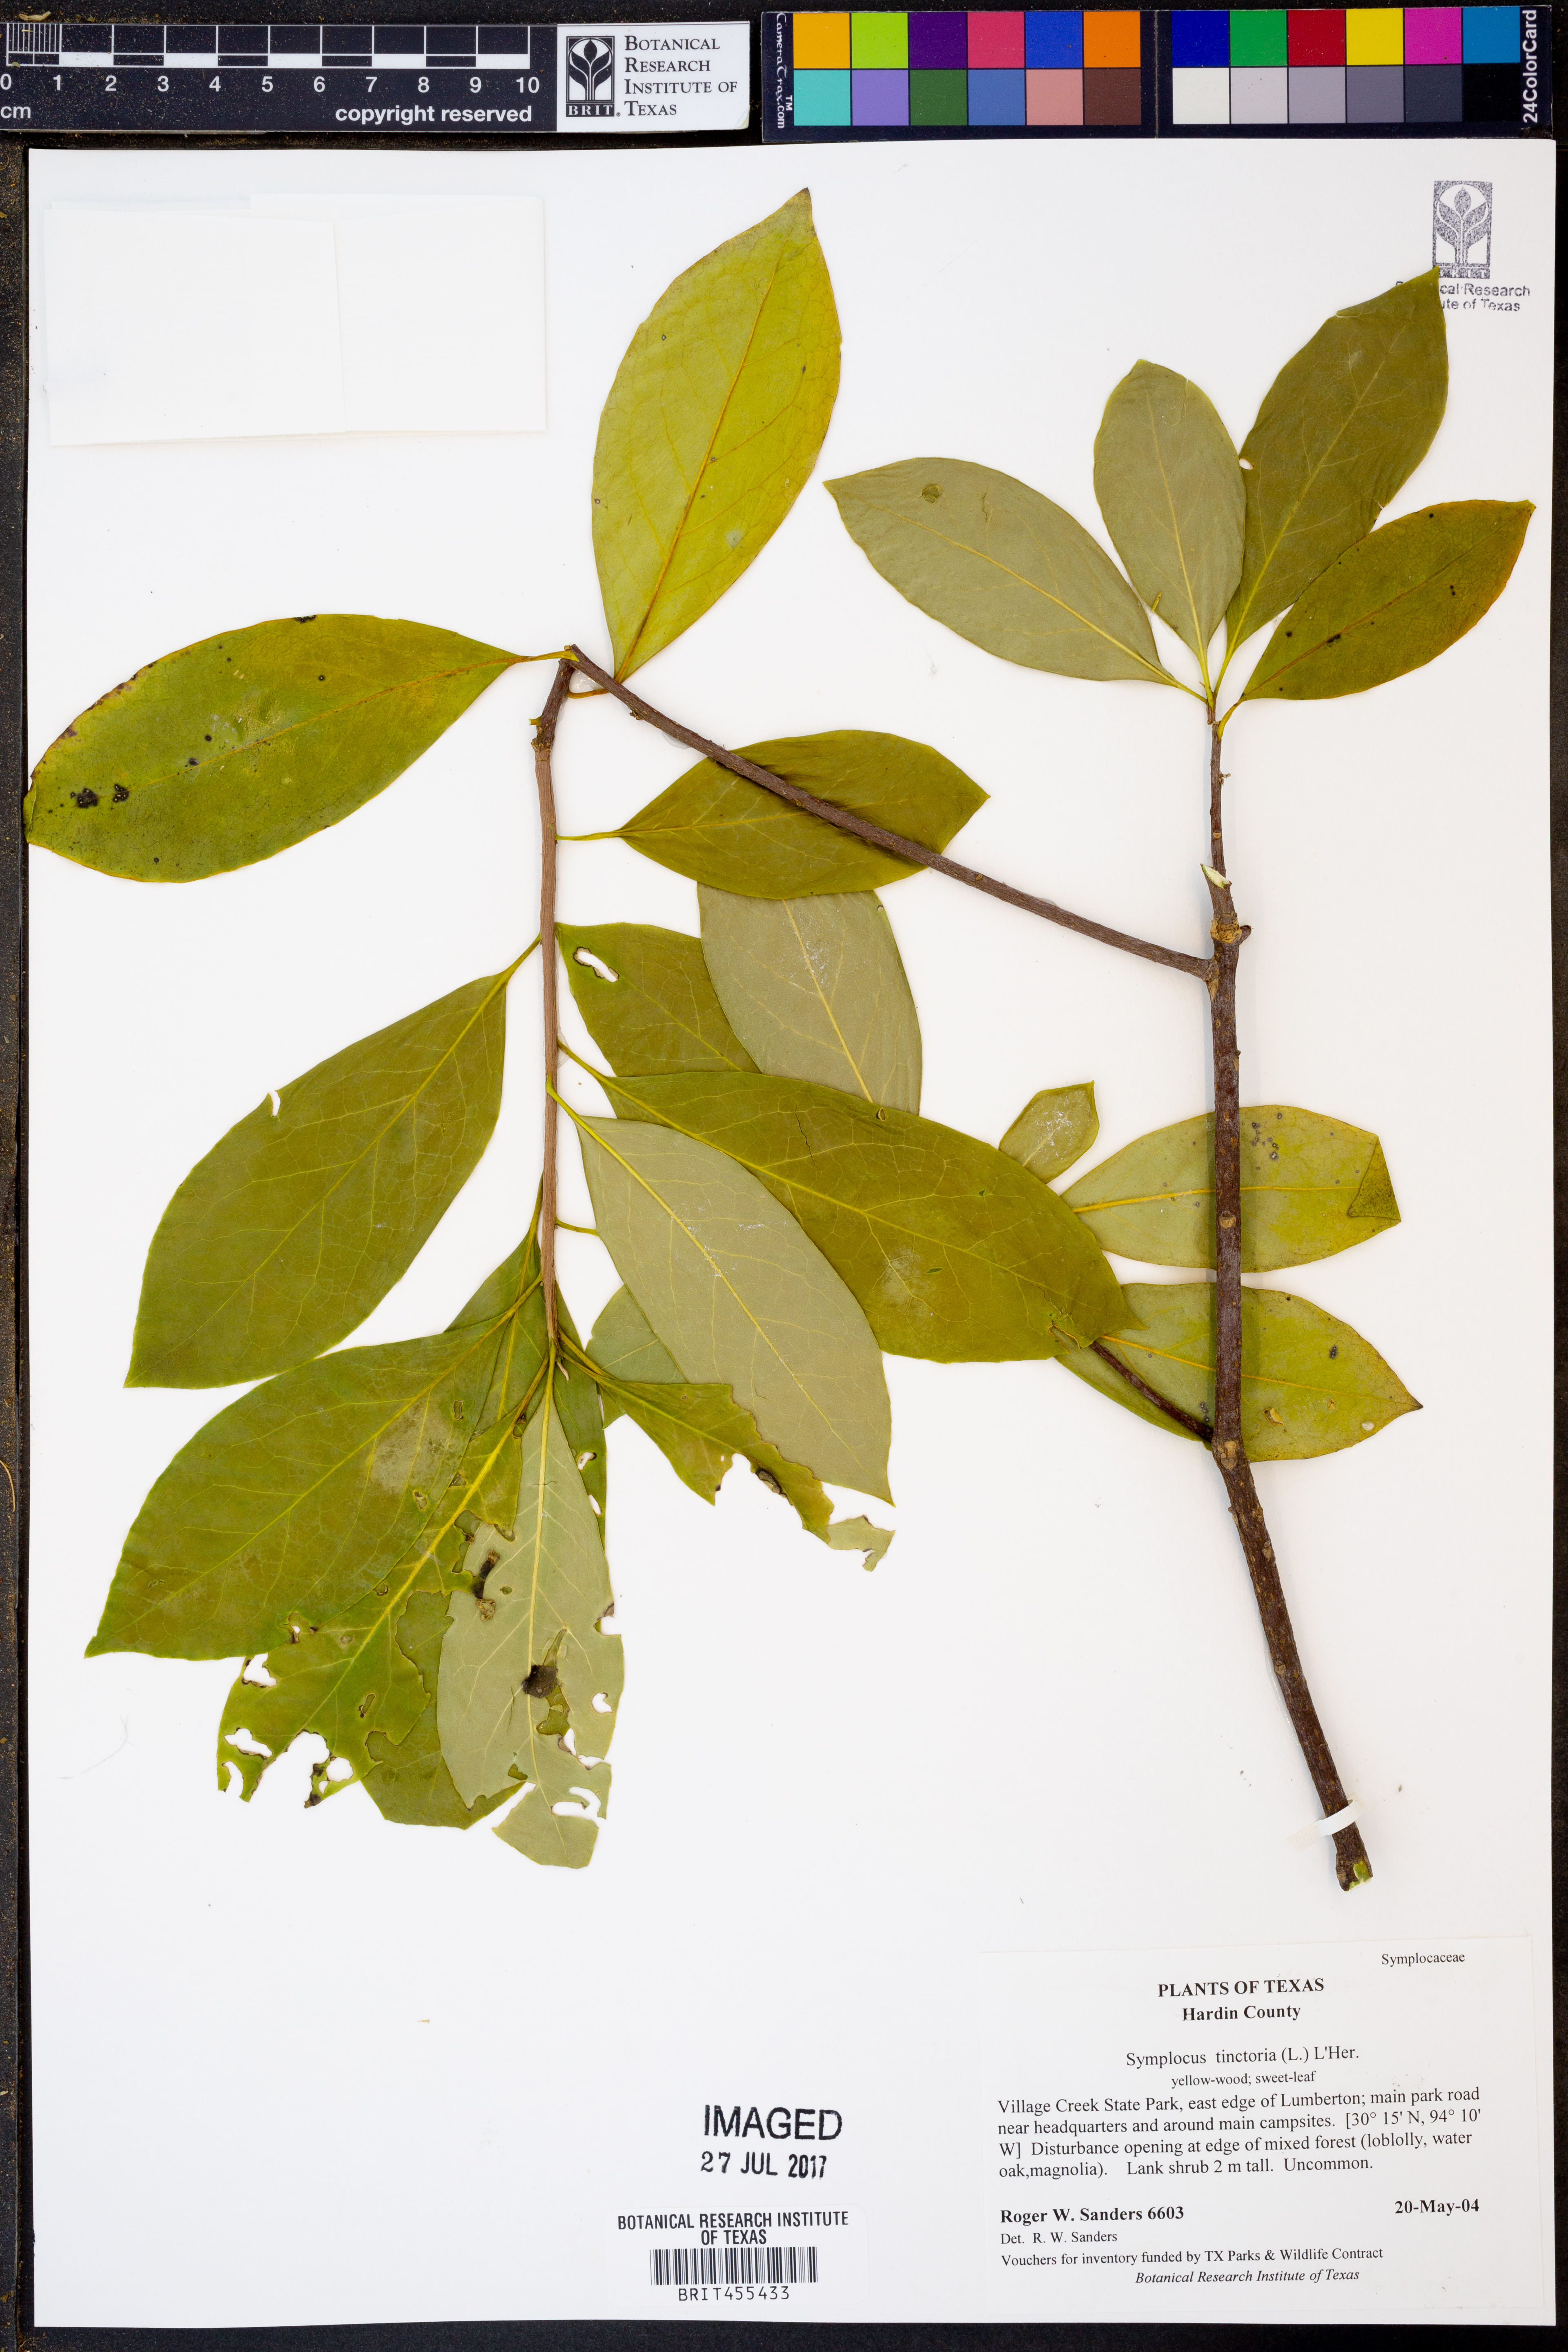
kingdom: Plantae
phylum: Tracheophyta
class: Magnoliopsida
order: Ericales
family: Symplocaceae
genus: Symplocos
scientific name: Symplocos tinctoria
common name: Horse-sugar
